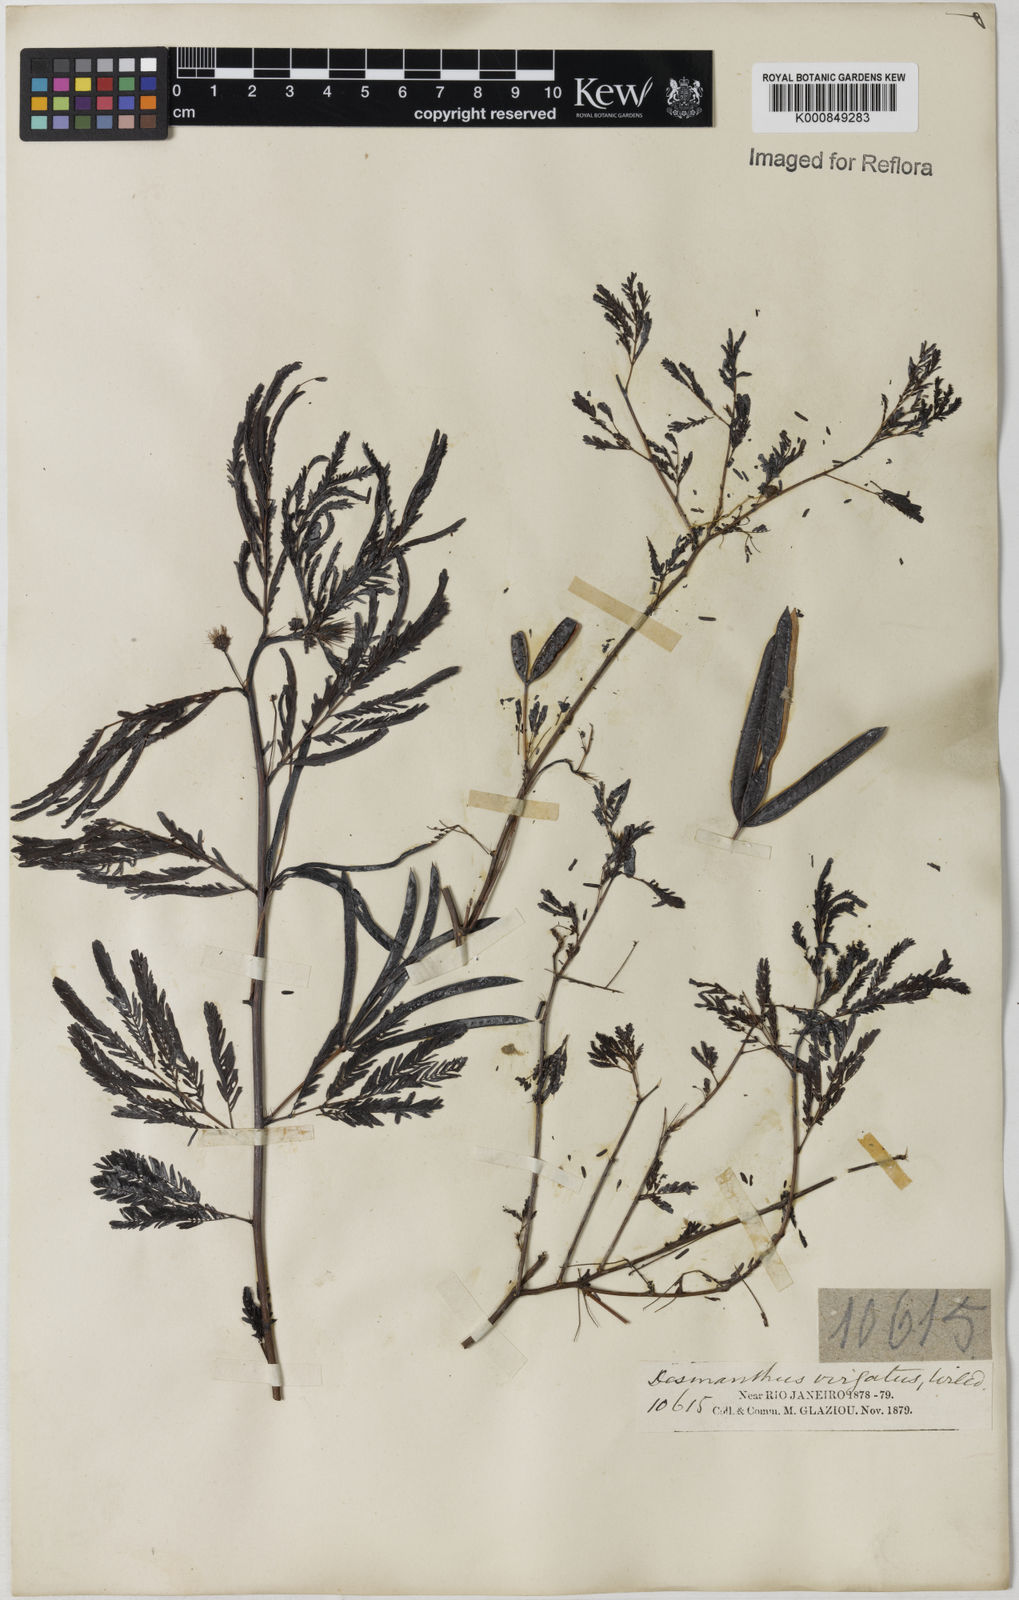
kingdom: Plantae
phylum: Tracheophyta
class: Magnoliopsida
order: Fabales
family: Fabaceae
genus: Desmanthus
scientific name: Desmanthus virgatus
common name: Wild tantan
